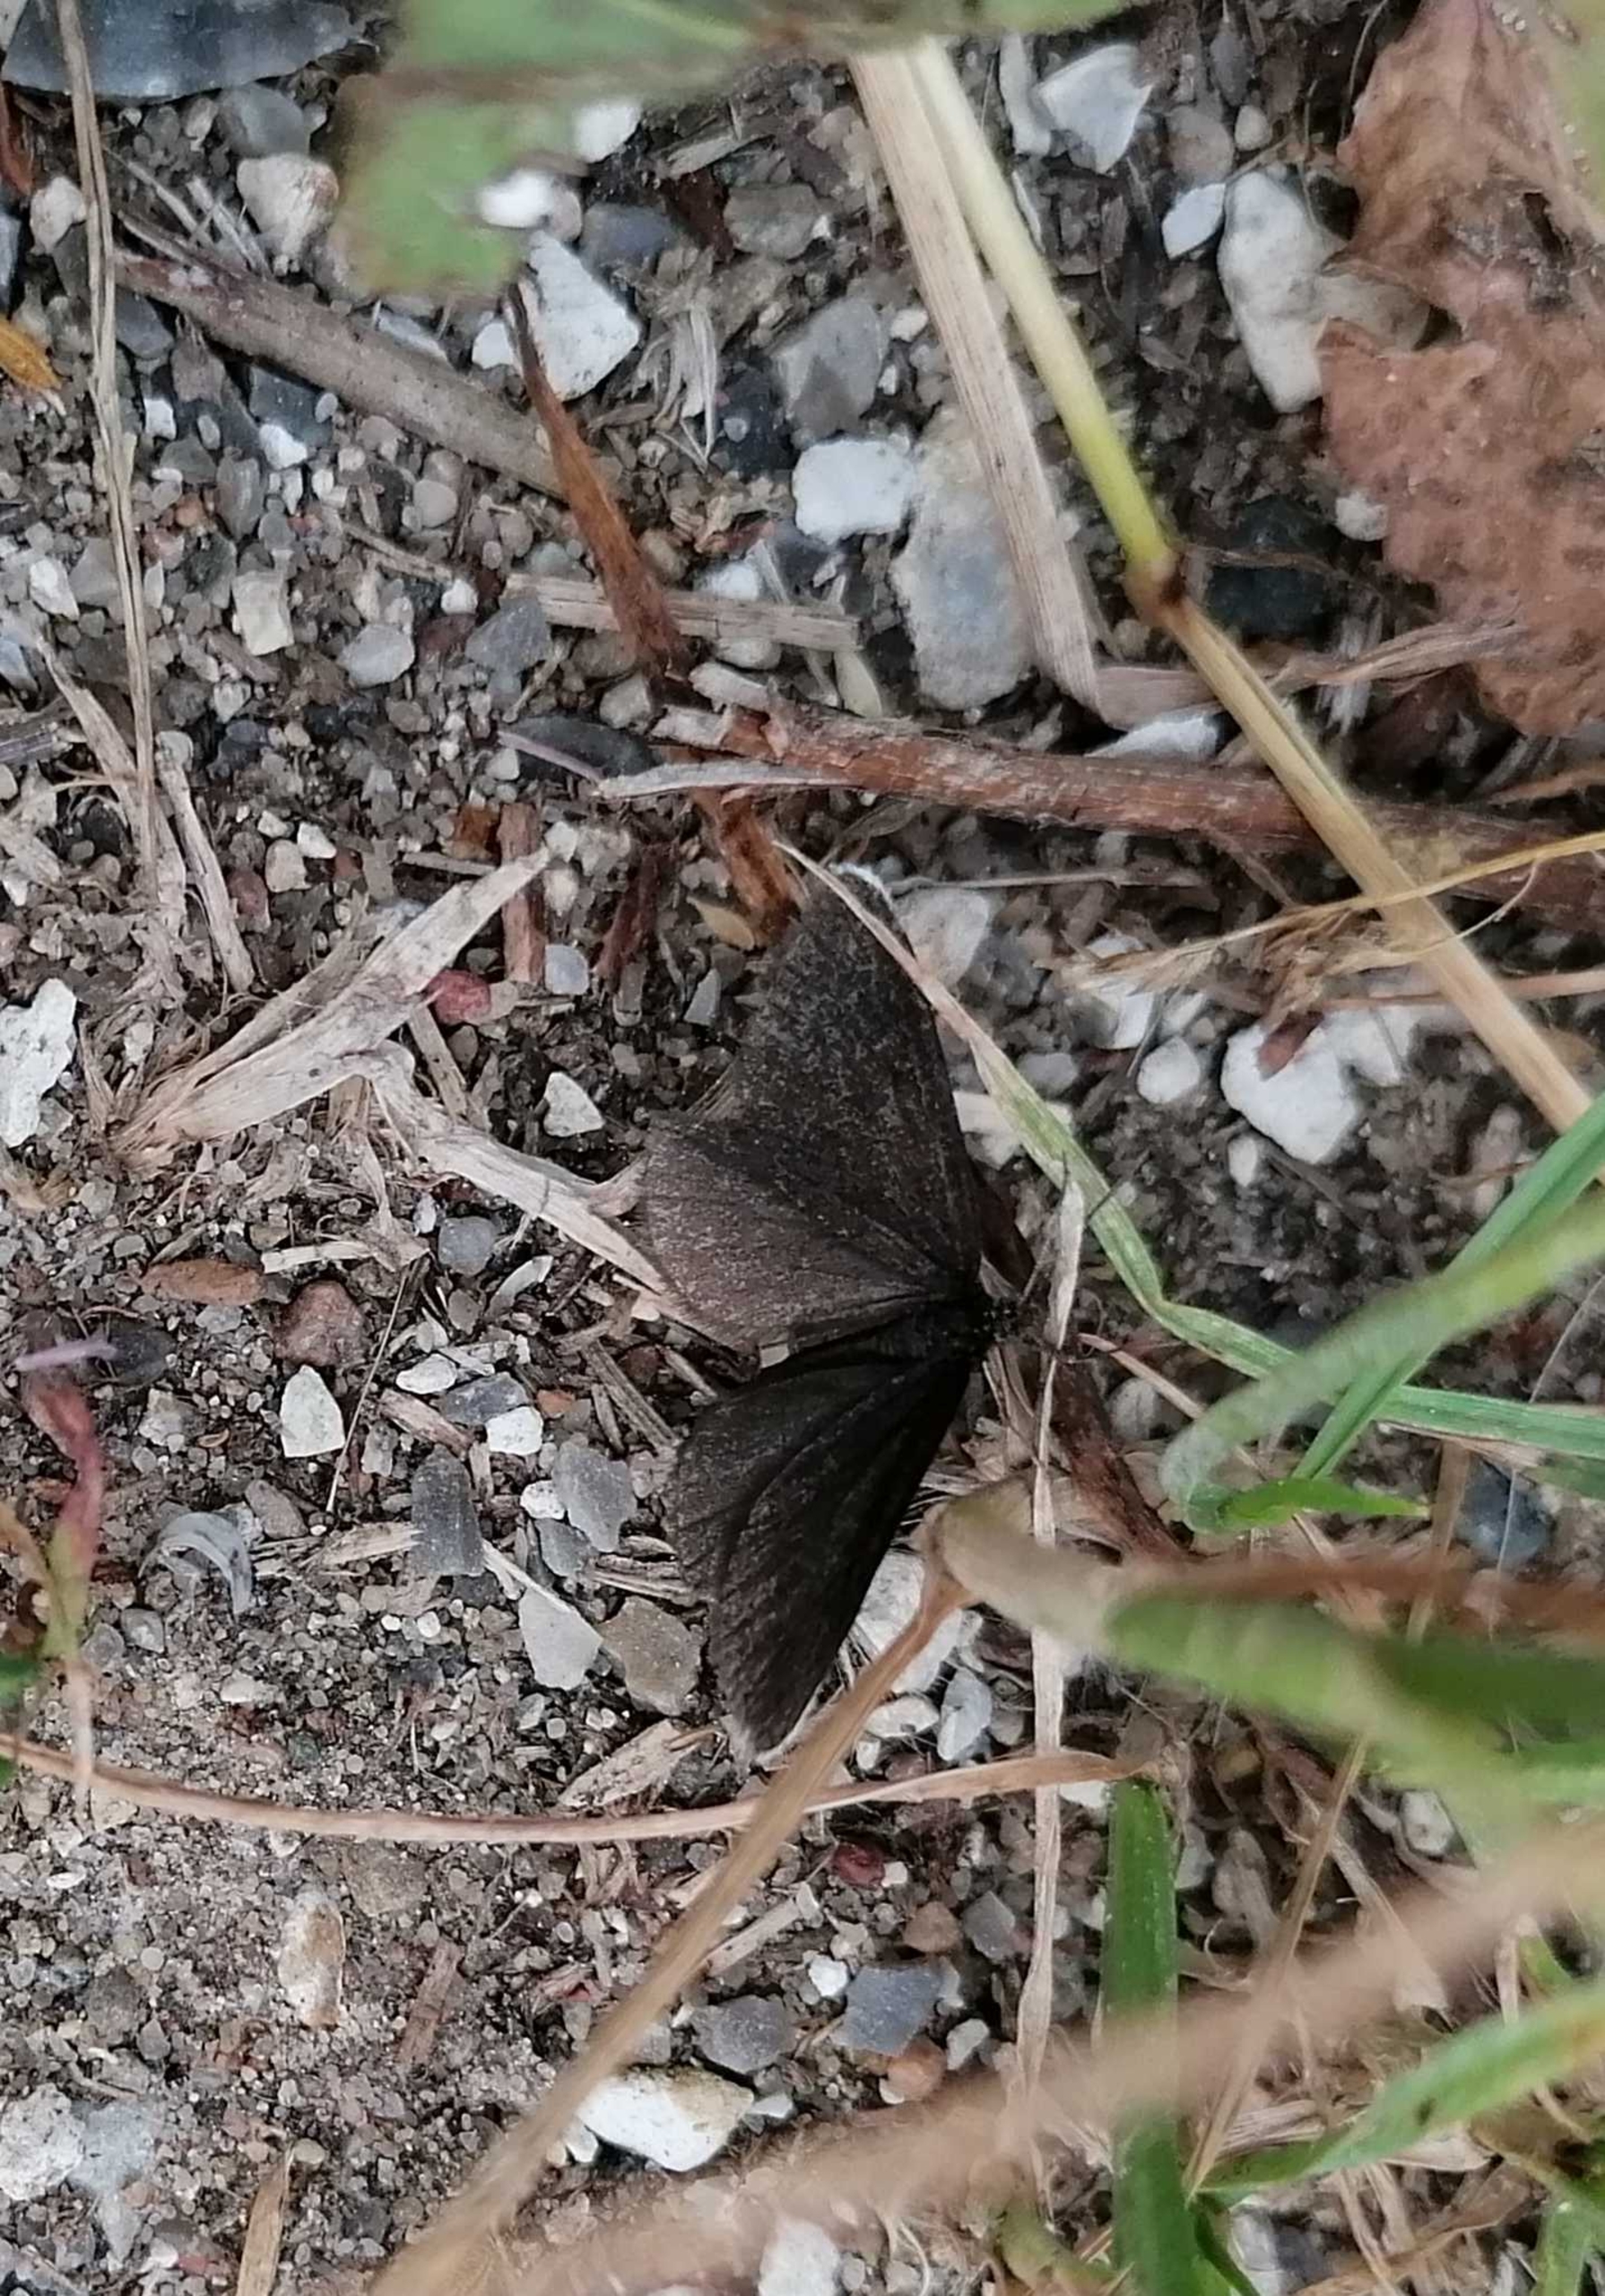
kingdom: Animalia
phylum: Arthropoda
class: Insecta
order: Lepidoptera
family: Geometridae
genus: Odezia
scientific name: Odezia atrata
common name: Sort måler
